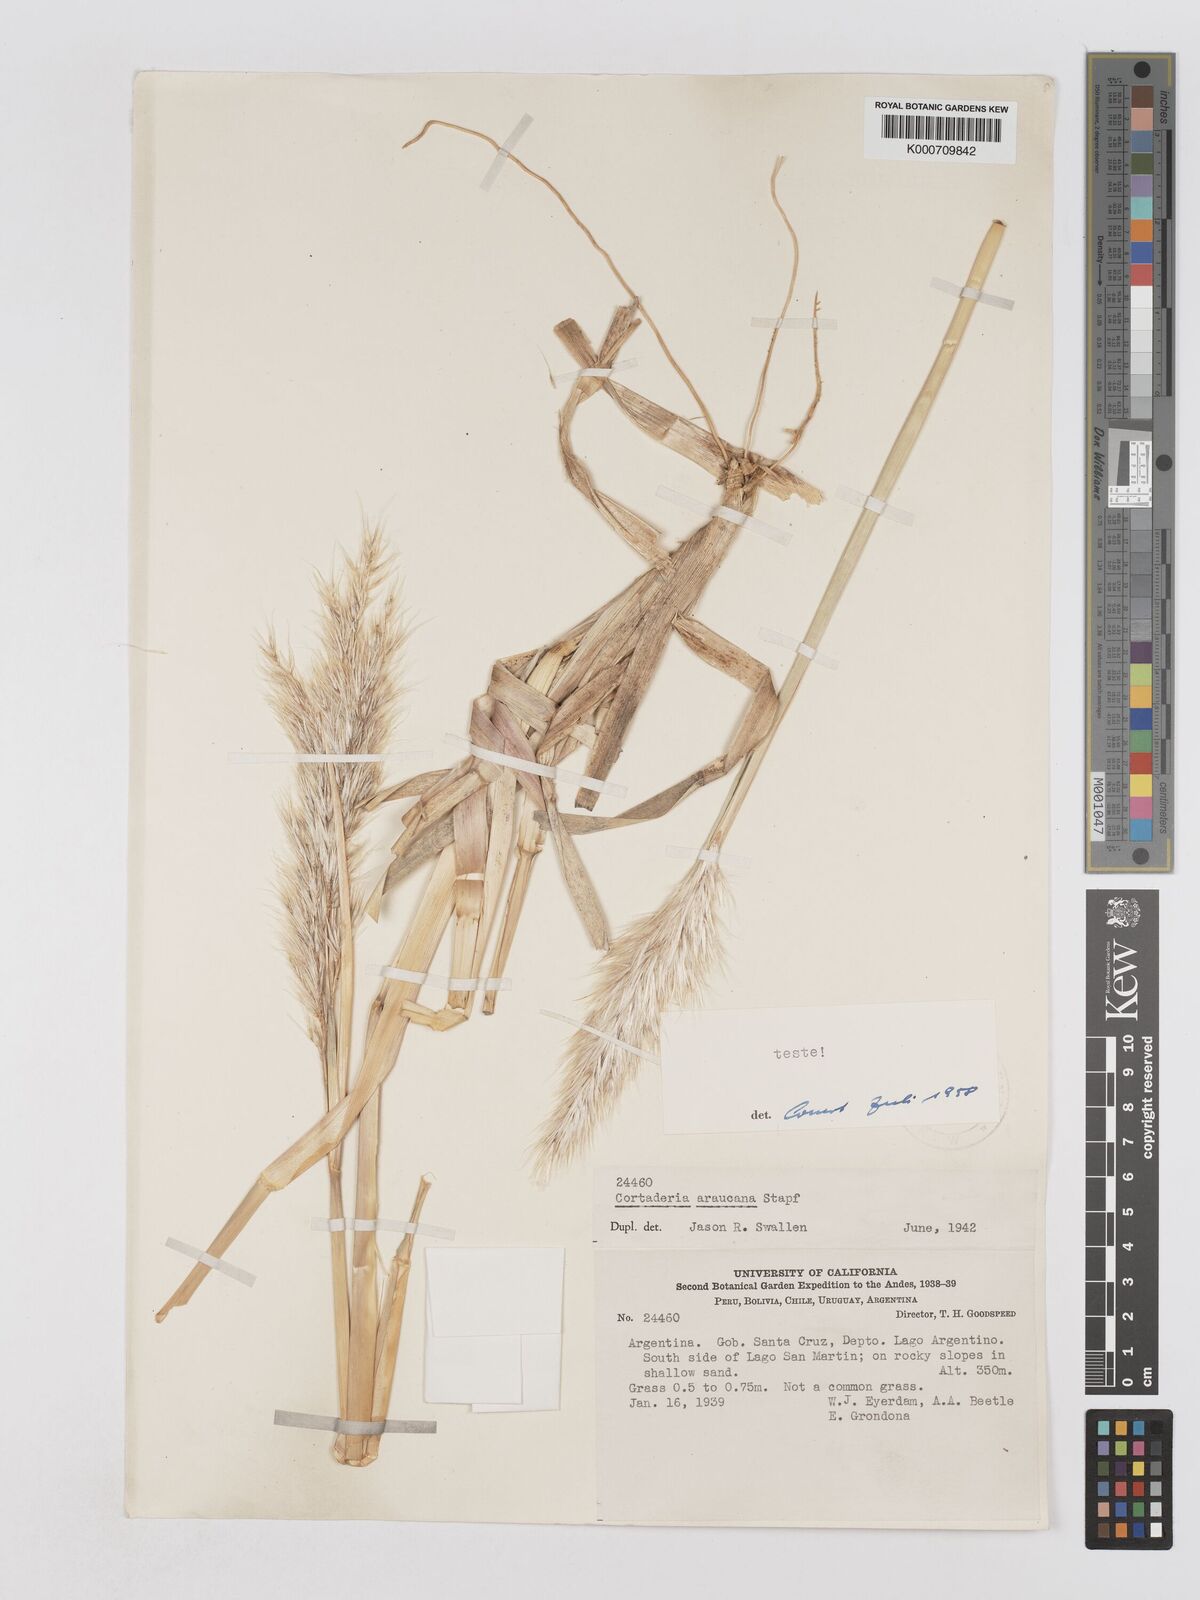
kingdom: Plantae
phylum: Tracheophyta
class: Liliopsida
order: Poales
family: Poaceae
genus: Cortaderia
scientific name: Cortaderia araucana
